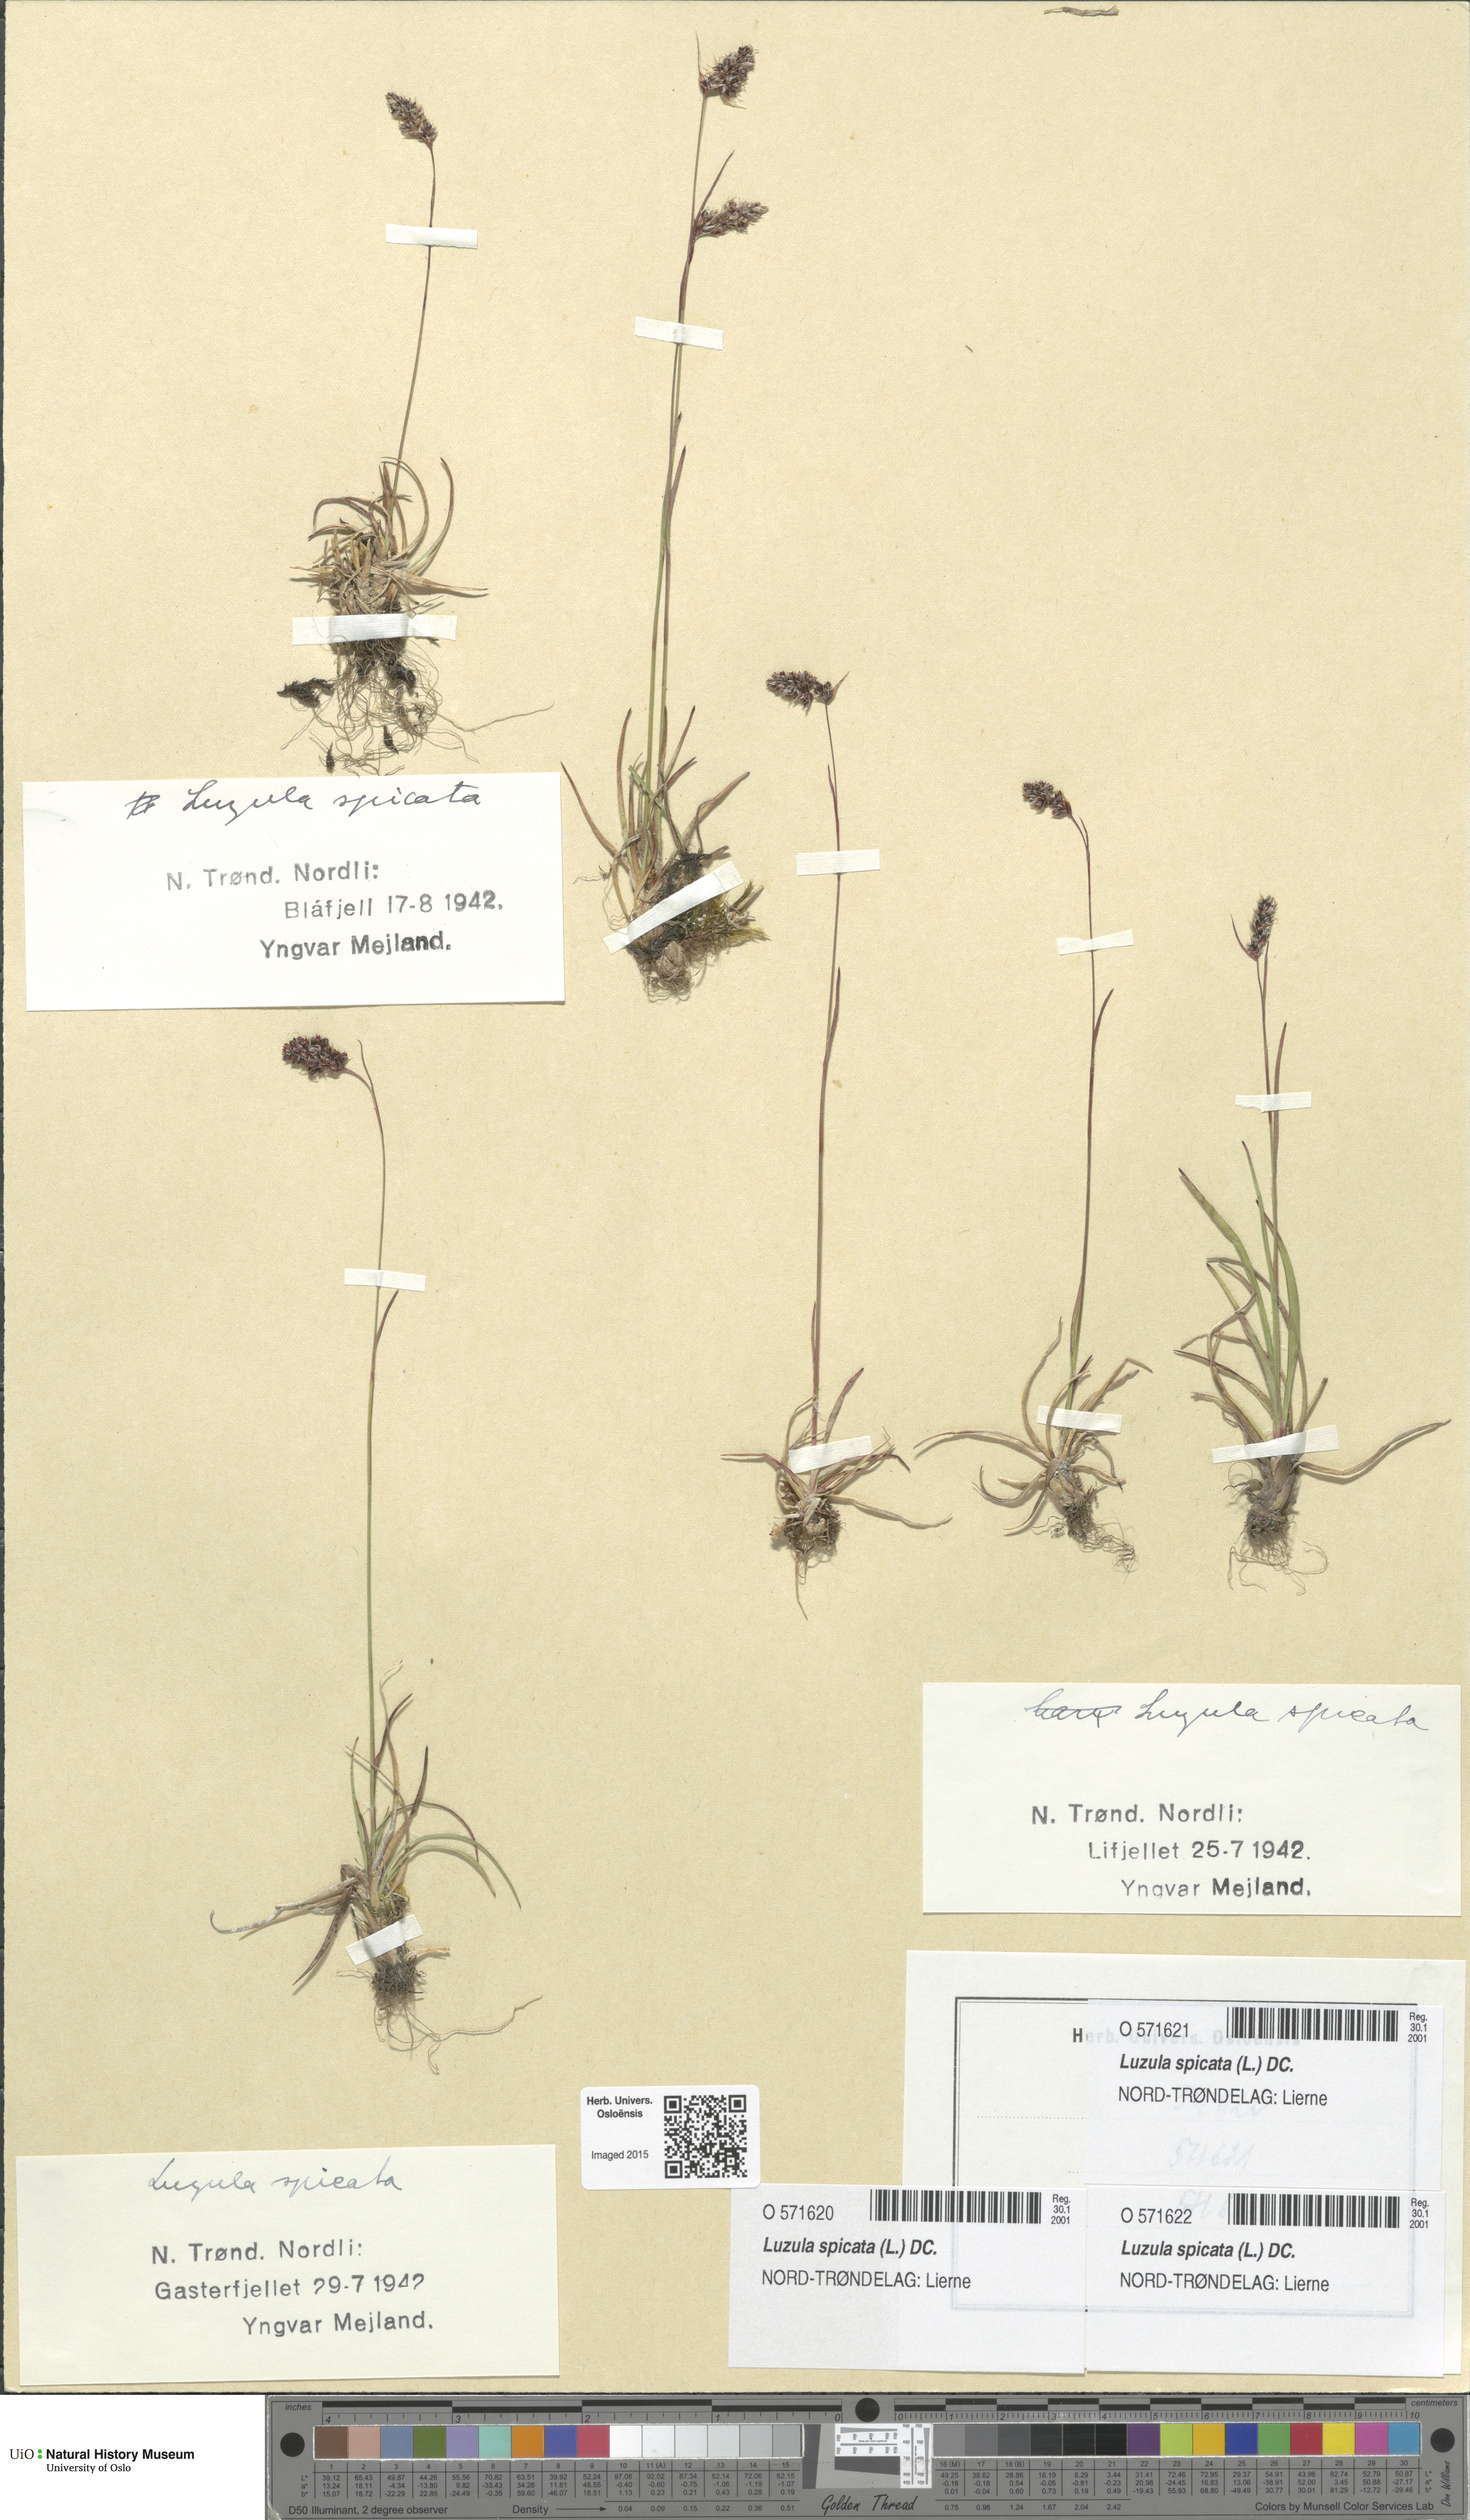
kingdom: Plantae
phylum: Tracheophyta
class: Liliopsida
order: Poales
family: Juncaceae
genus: Luzula
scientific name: Luzula spicata
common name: Spiked wood-rush
